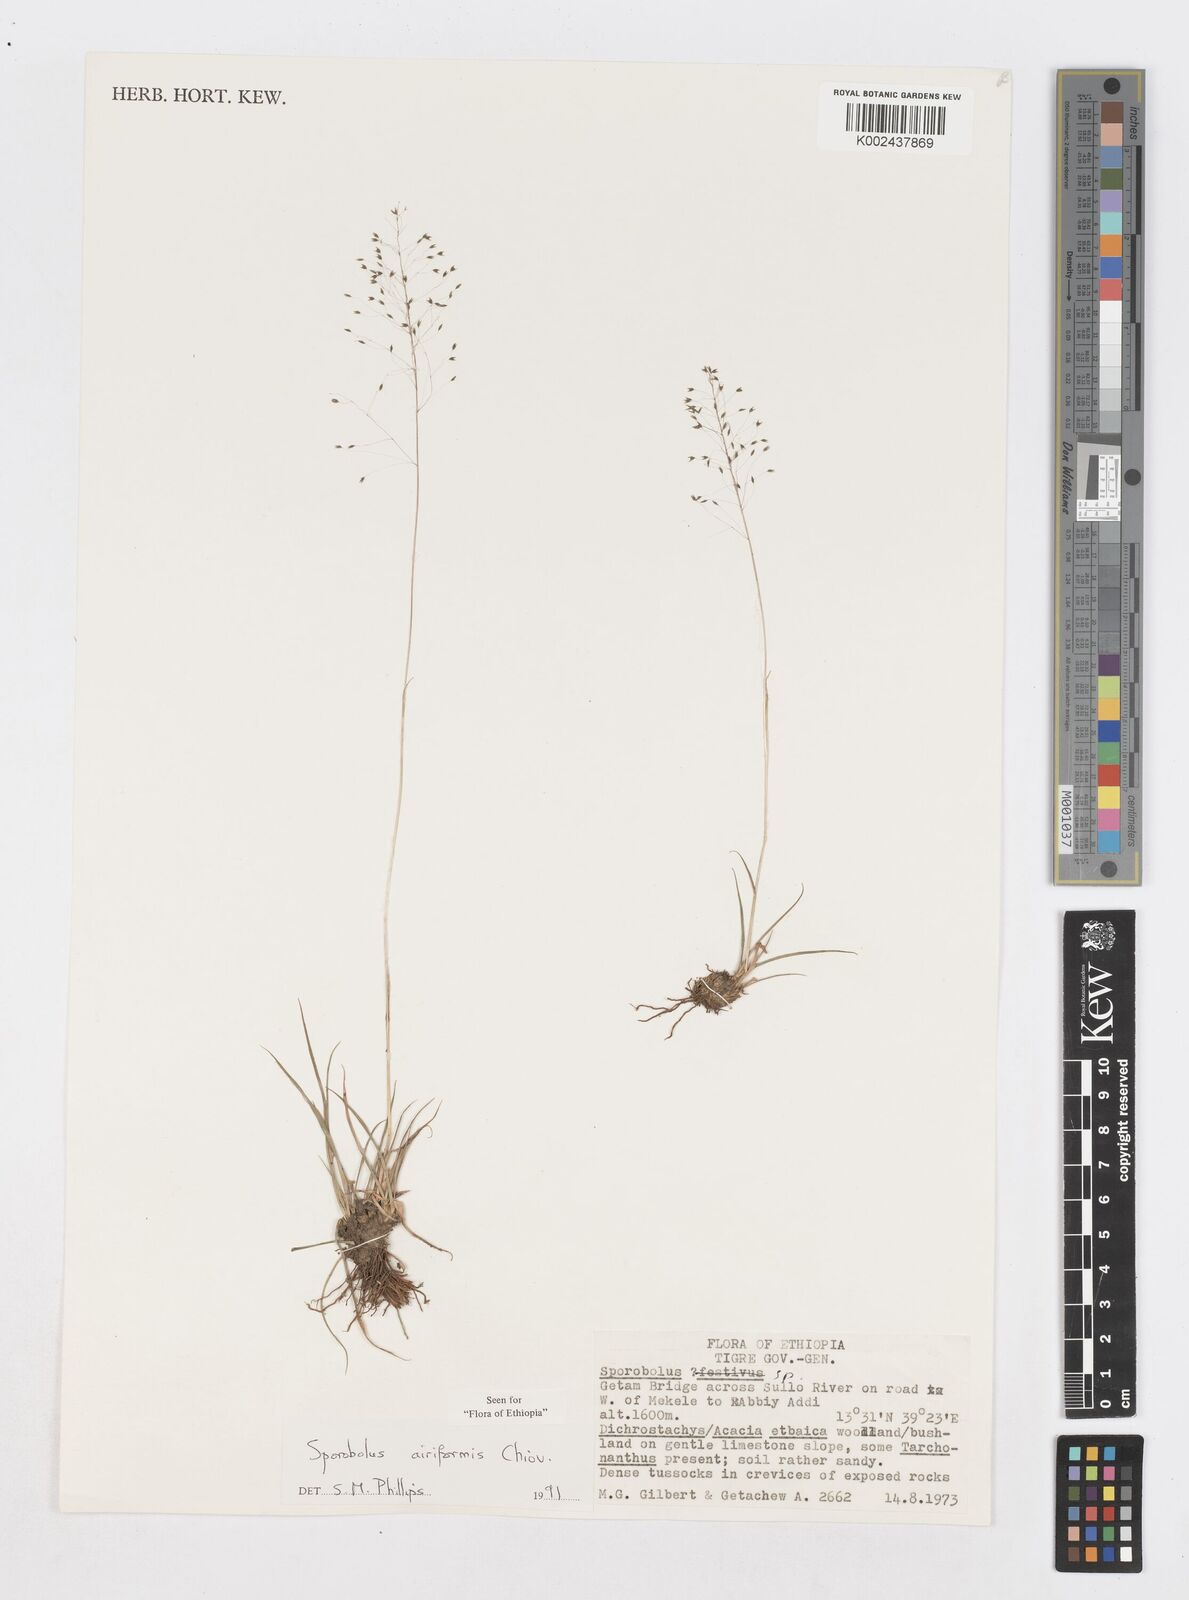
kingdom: Plantae
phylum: Tracheophyta
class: Liliopsida
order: Poales
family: Poaceae
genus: Sporobolus
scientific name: Sporobolus airiformis
